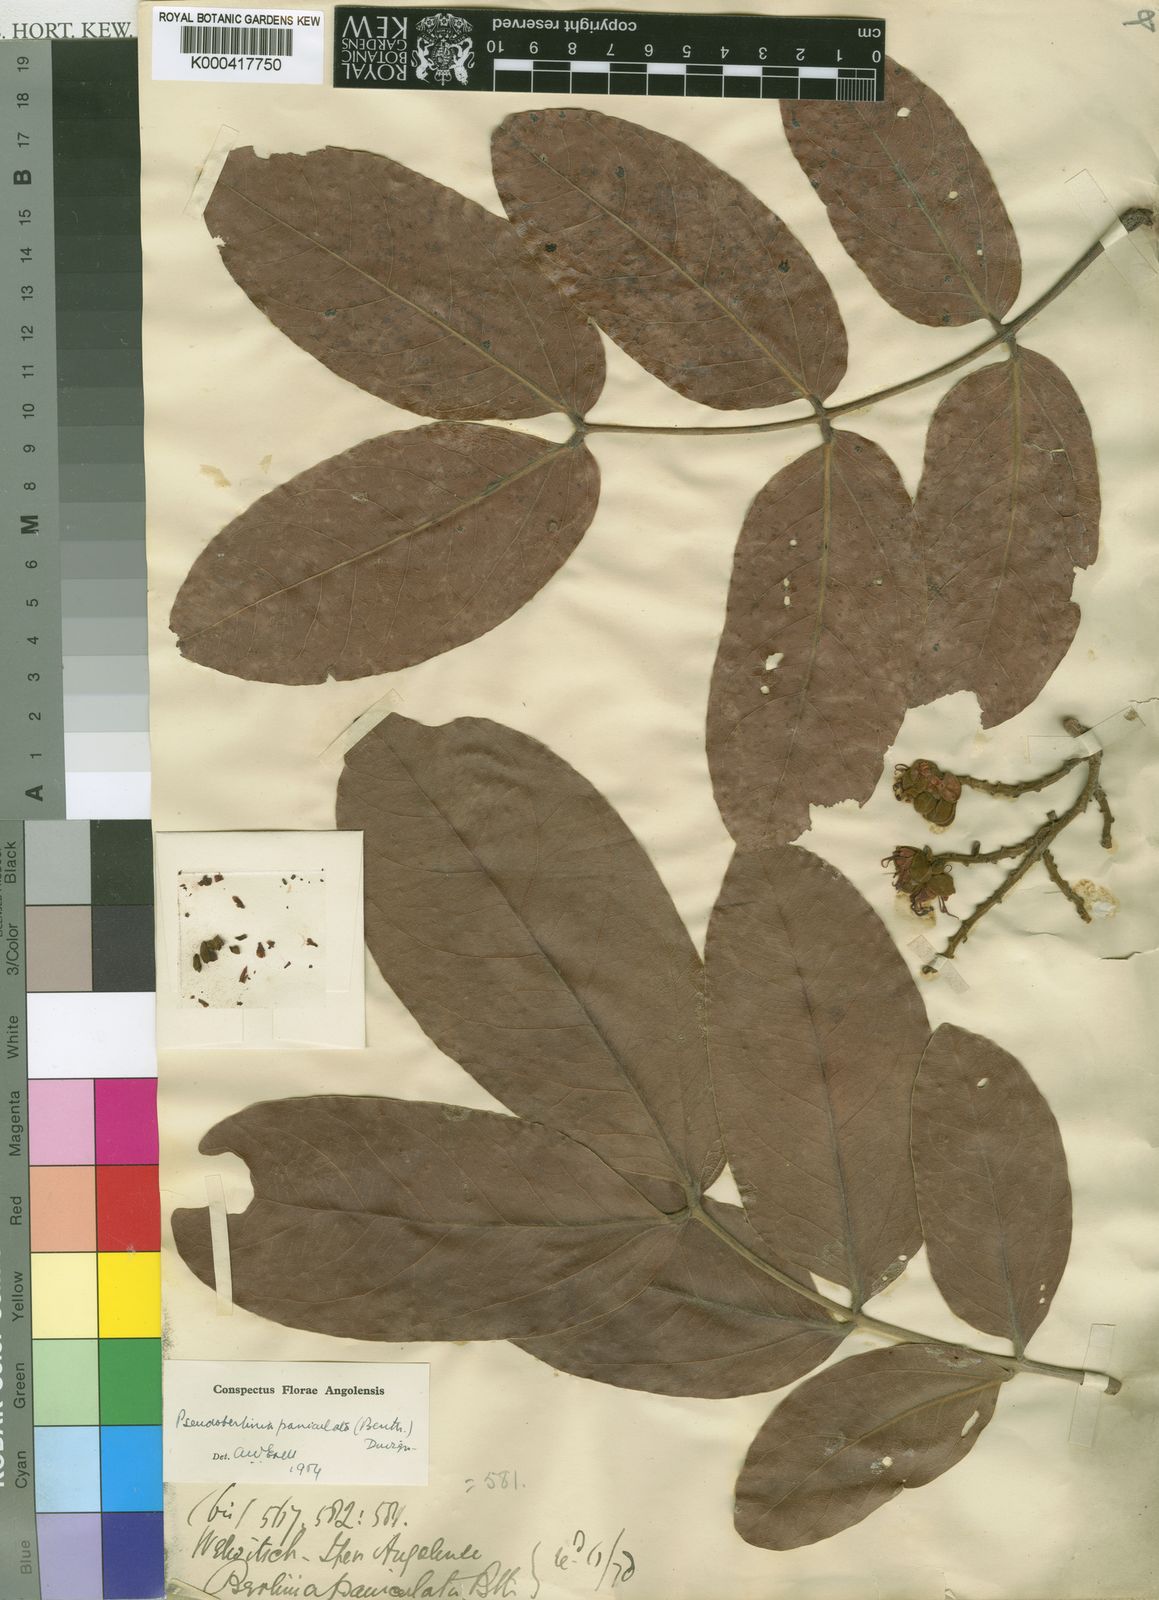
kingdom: Plantae
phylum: Tracheophyta
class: Magnoliopsida
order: Fabales
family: Fabaceae
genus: Julbernardia
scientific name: Julbernardia paniculata
